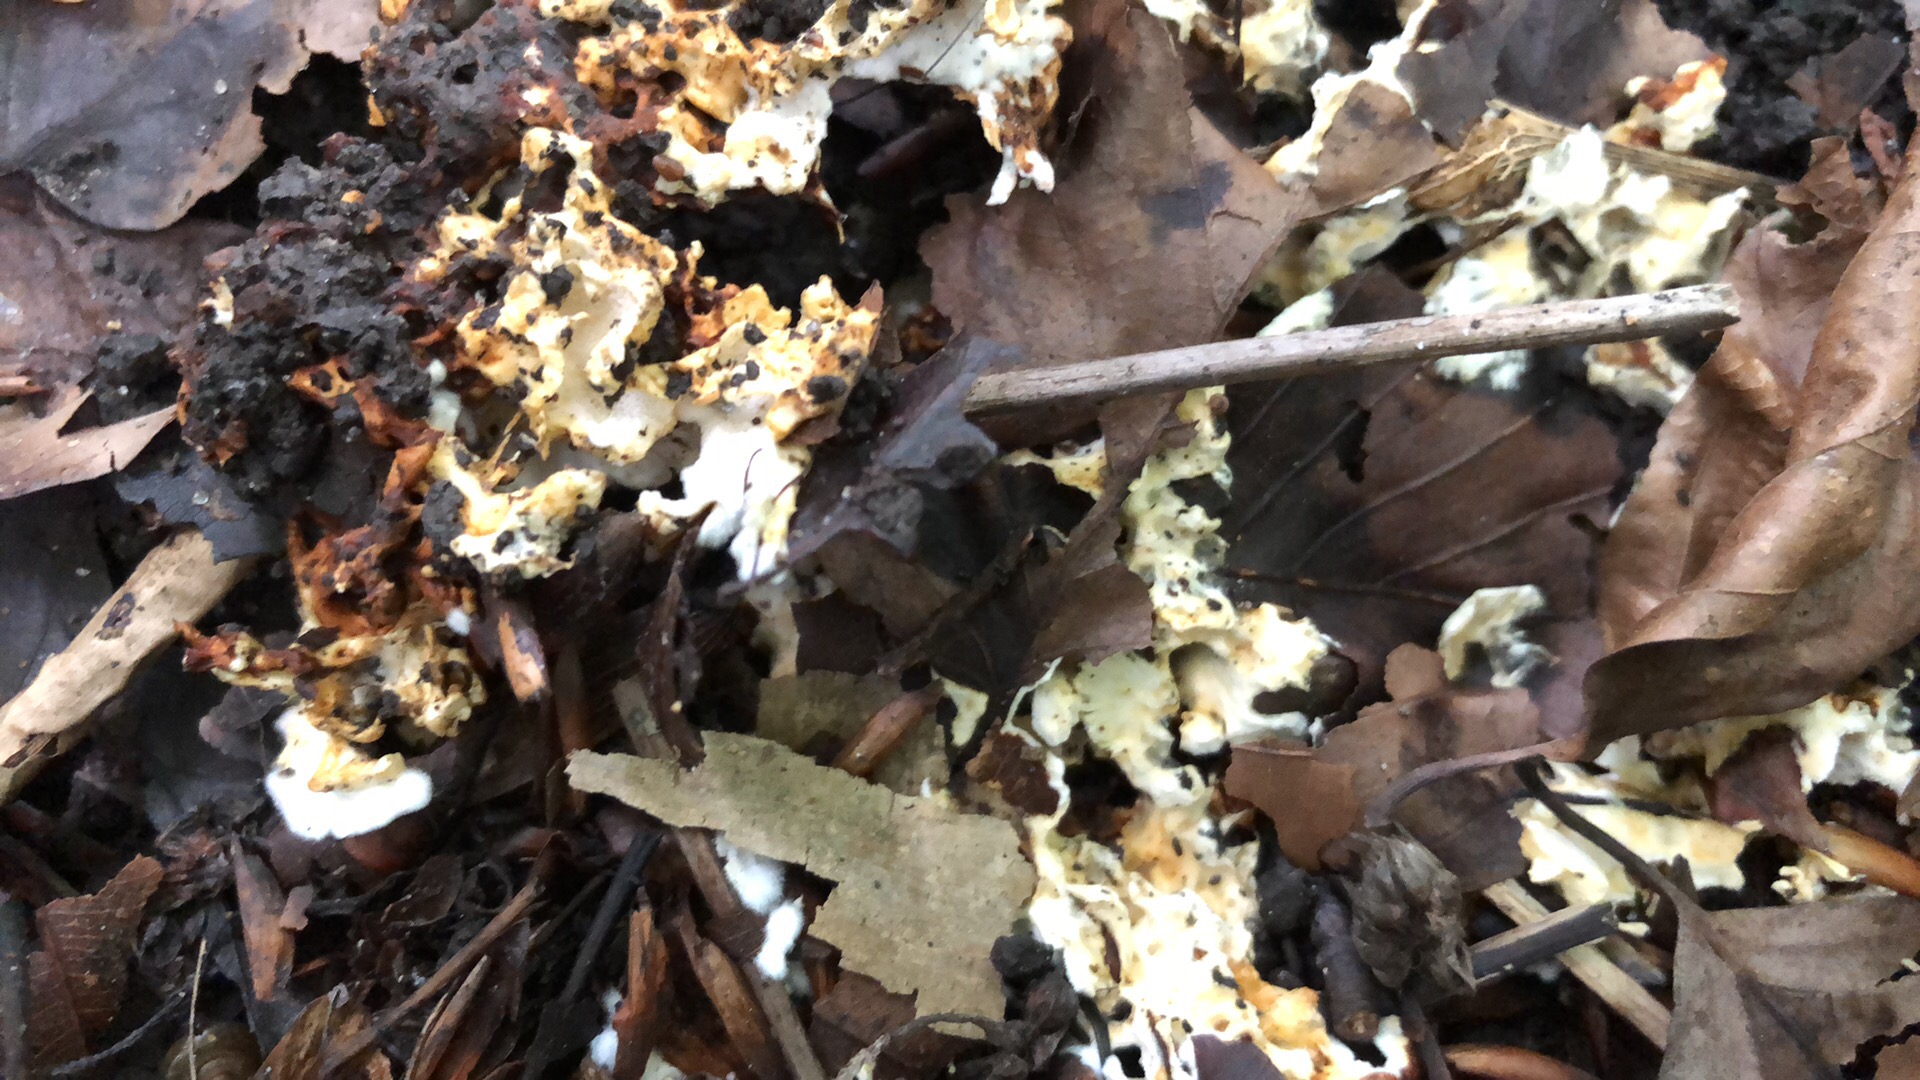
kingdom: Fungi
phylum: Basidiomycota
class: Agaricomycetes
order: Polyporales
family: Steccherinaceae
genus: Loweomyces
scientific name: Loweomyces wynneae
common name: krybende blødporesvamp
